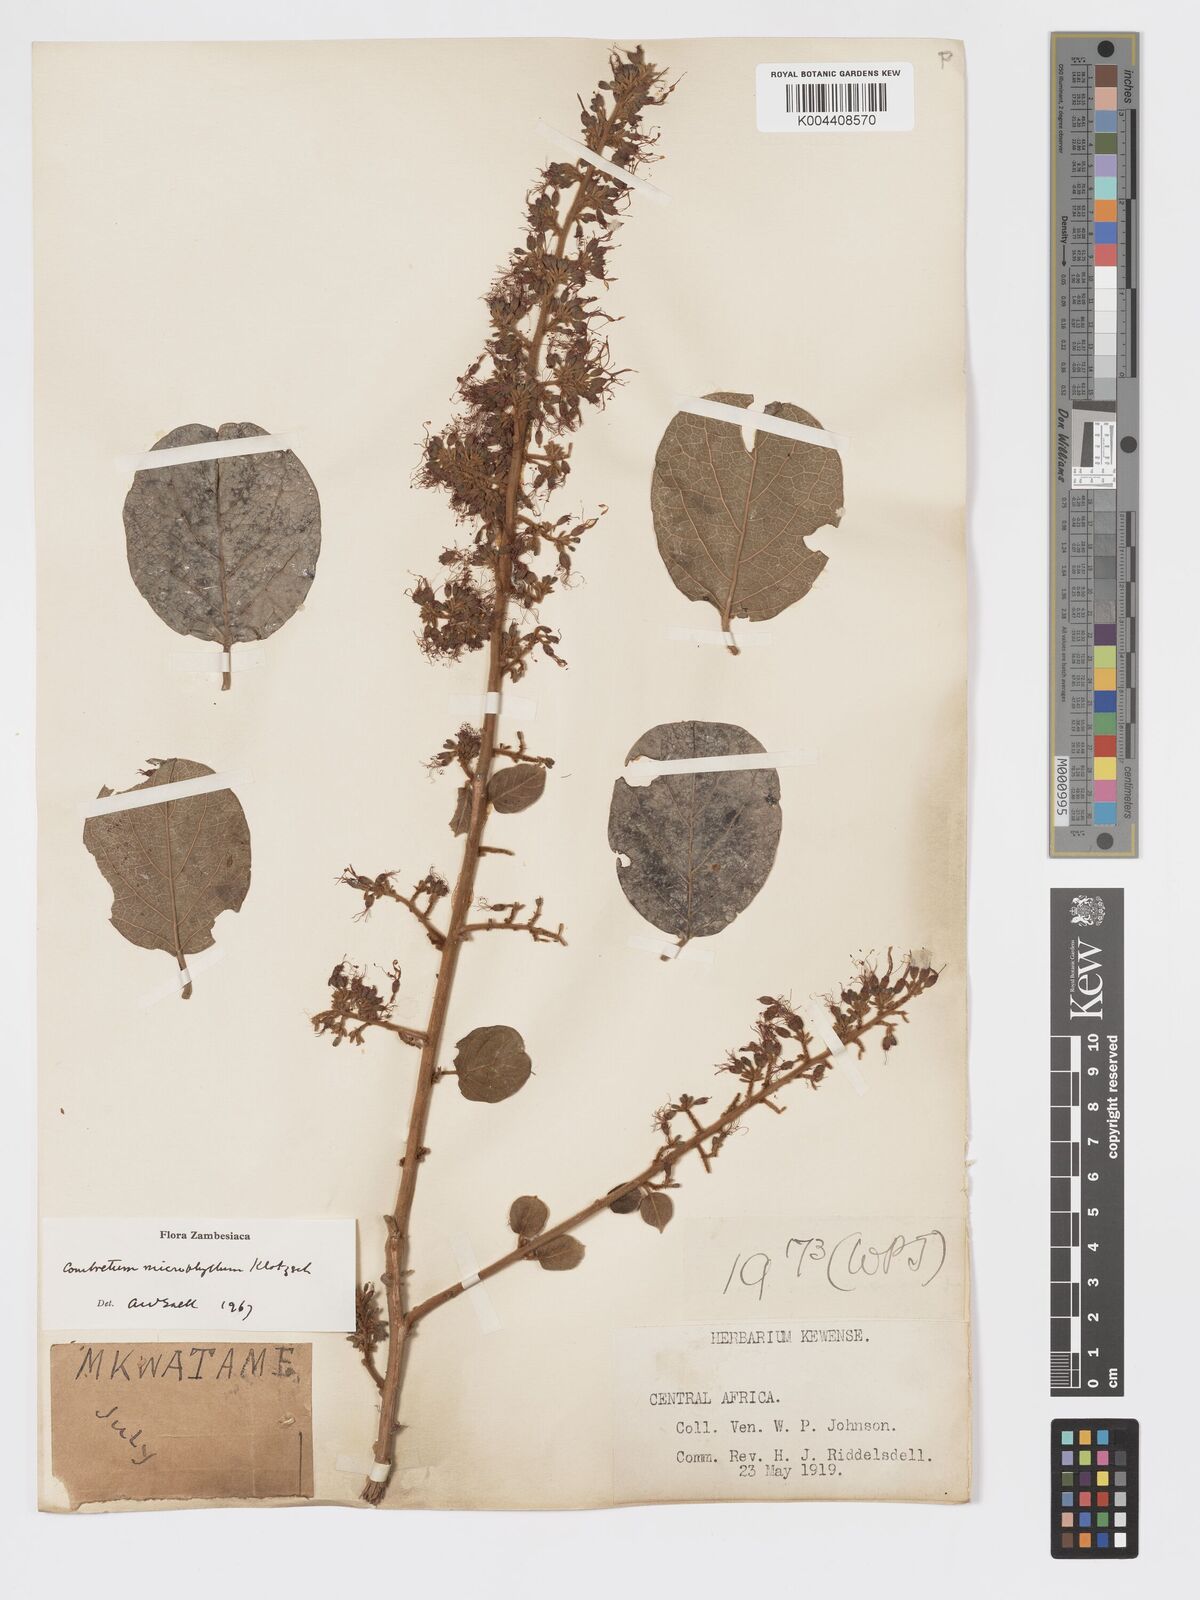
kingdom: Plantae
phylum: Tracheophyta
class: Magnoliopsida
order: Myrtales
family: Combretaceae
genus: Combretum
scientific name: Combretum microphyllum
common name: Burningbush
